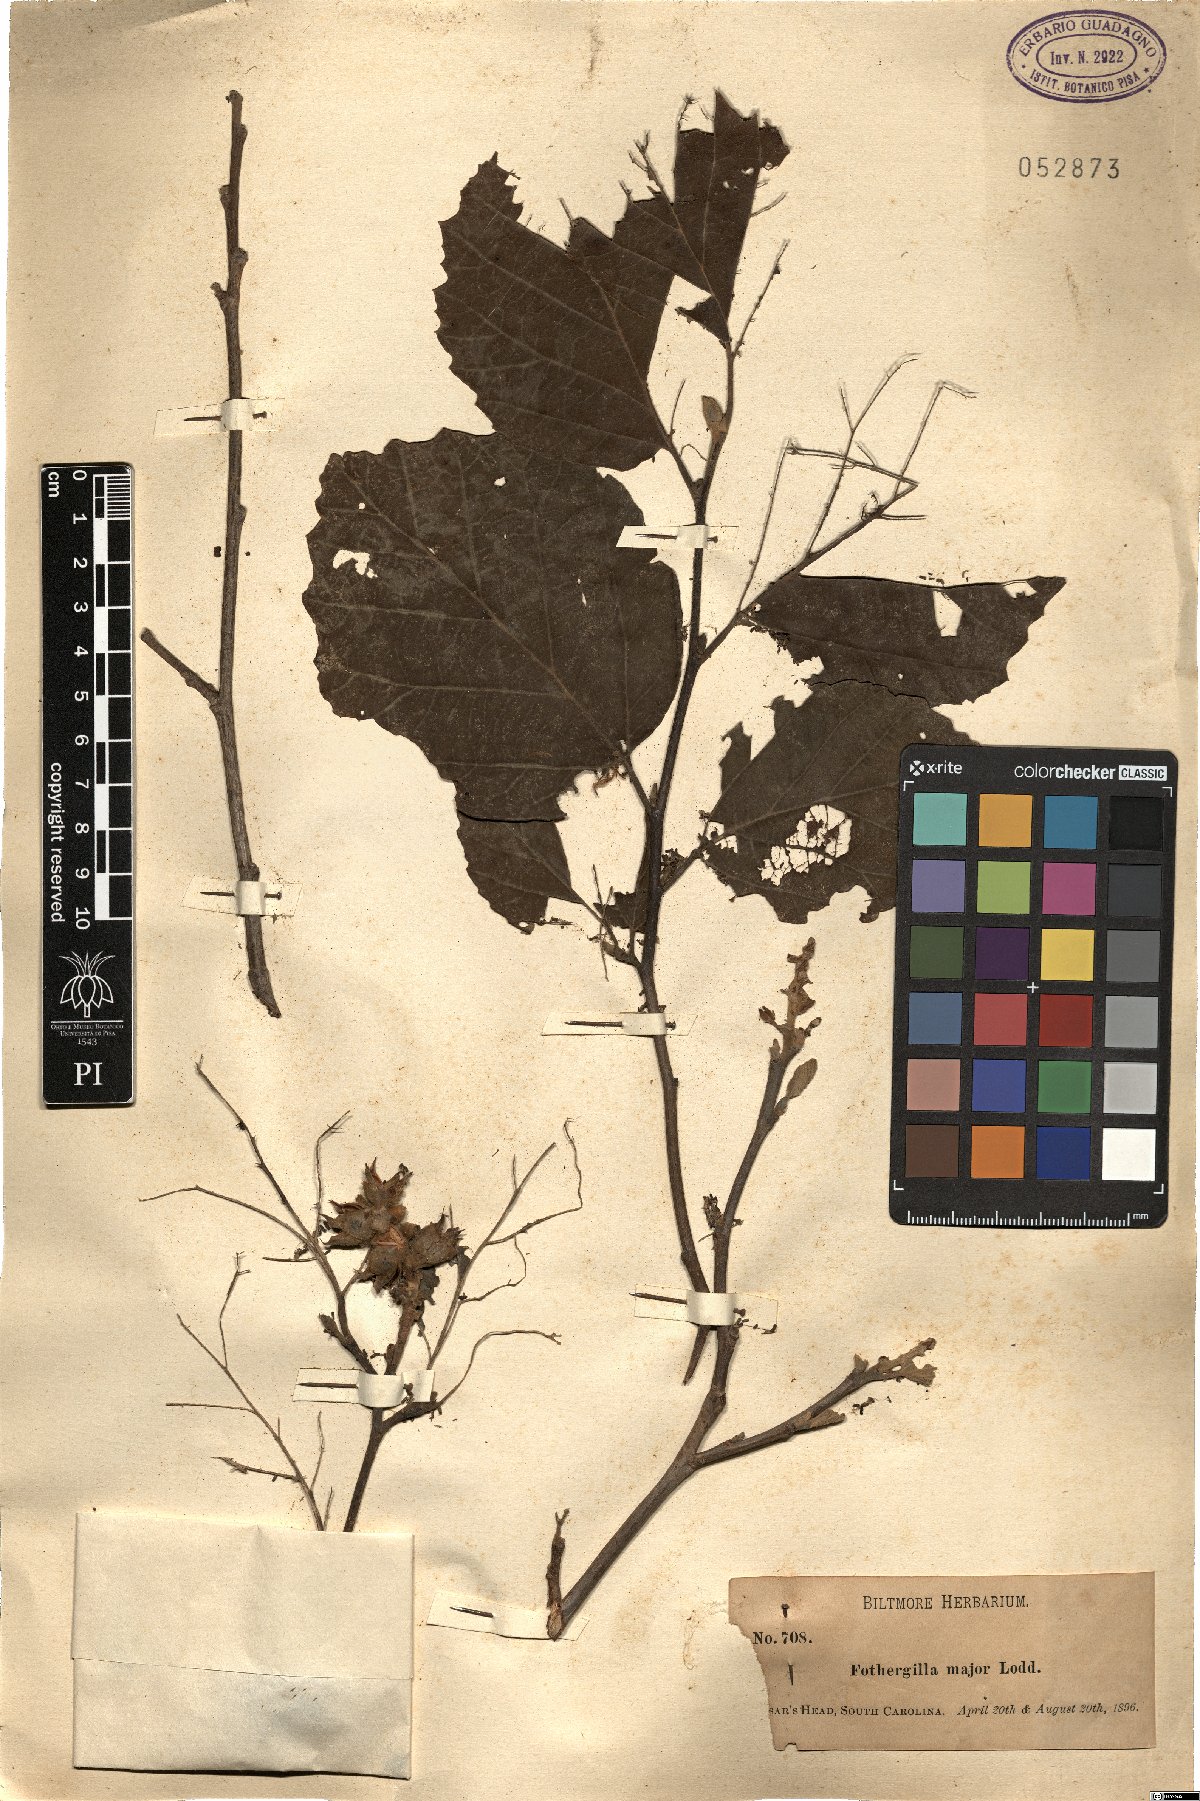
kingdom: Plantae
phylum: Tracheophyta
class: Magnoliopsida
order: Saxifragales
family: Hamamelidaceae
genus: Fothergilla
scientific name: Fothergilla latifolia
